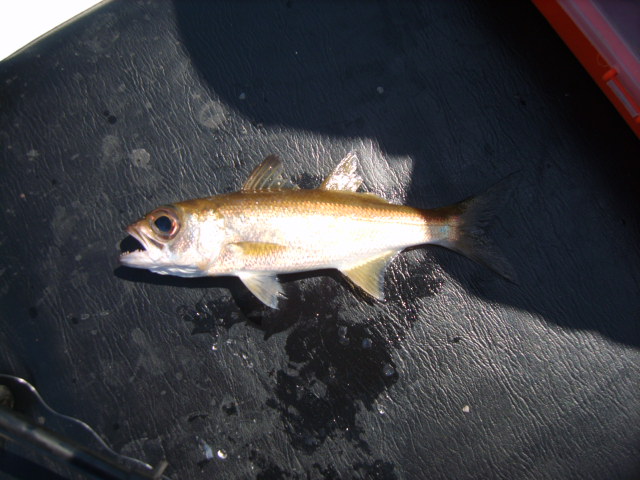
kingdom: Animalia
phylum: Chordata
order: Perciformes
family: Scombropidae
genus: Scombrops
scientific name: Scombrops boops
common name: Gnomefish
